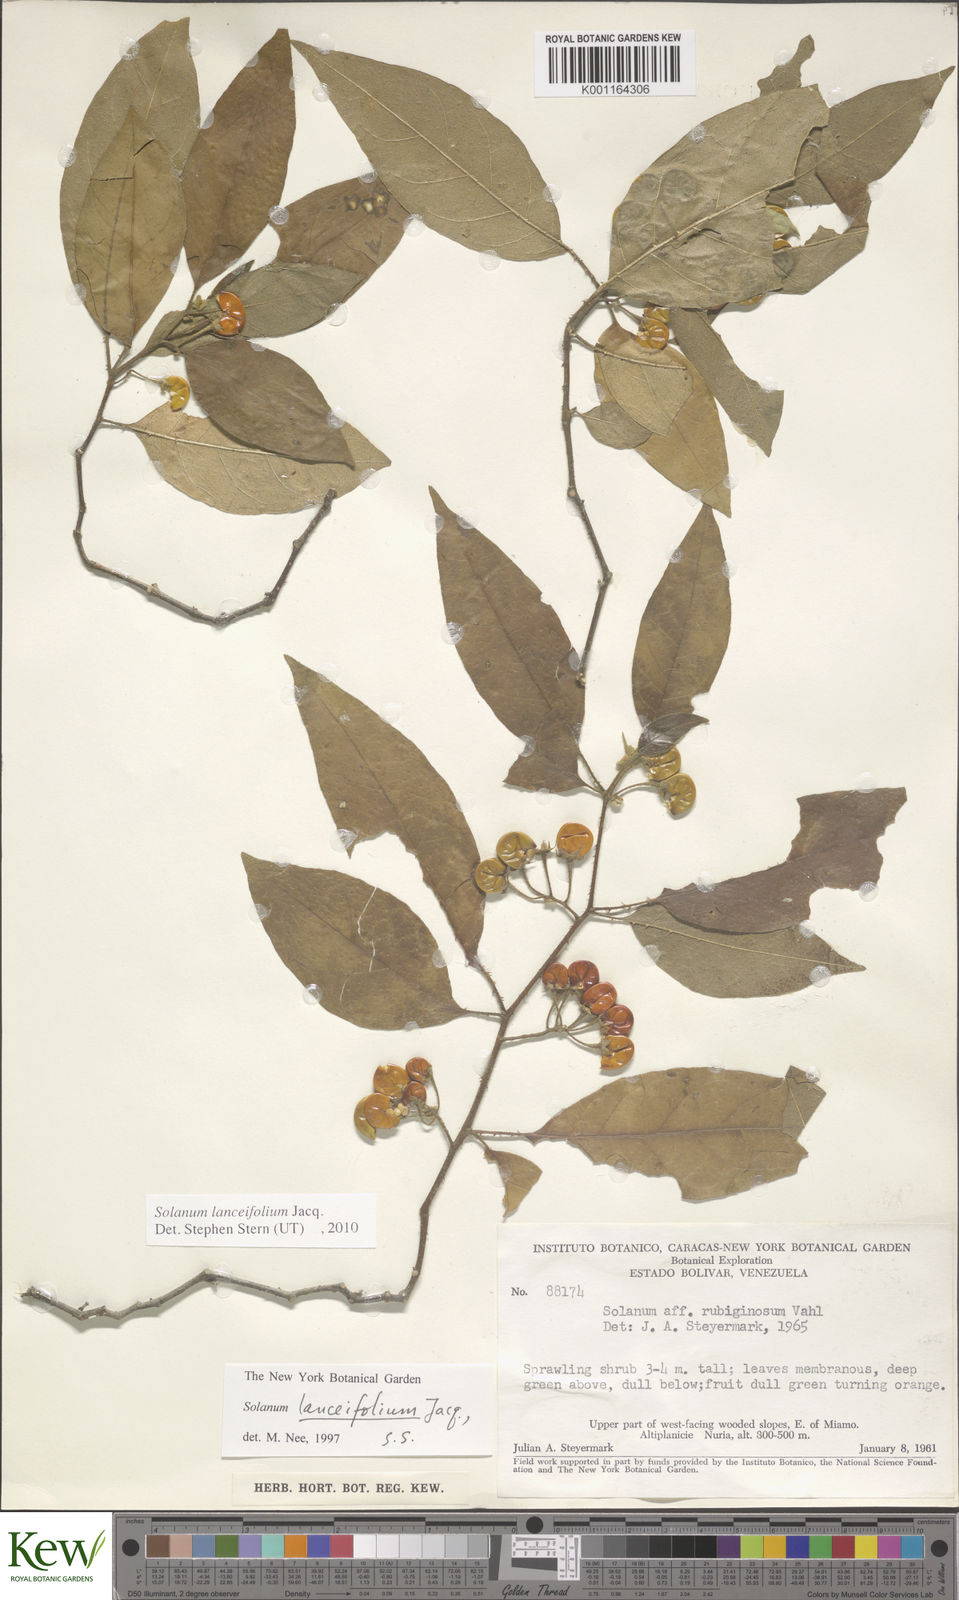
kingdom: Plantae
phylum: Tracheophyta
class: Magnoliopsida
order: Solanales
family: Solanaceae
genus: Solanum
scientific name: Solanum lanceifolium
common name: Lanceleaf nightshade
